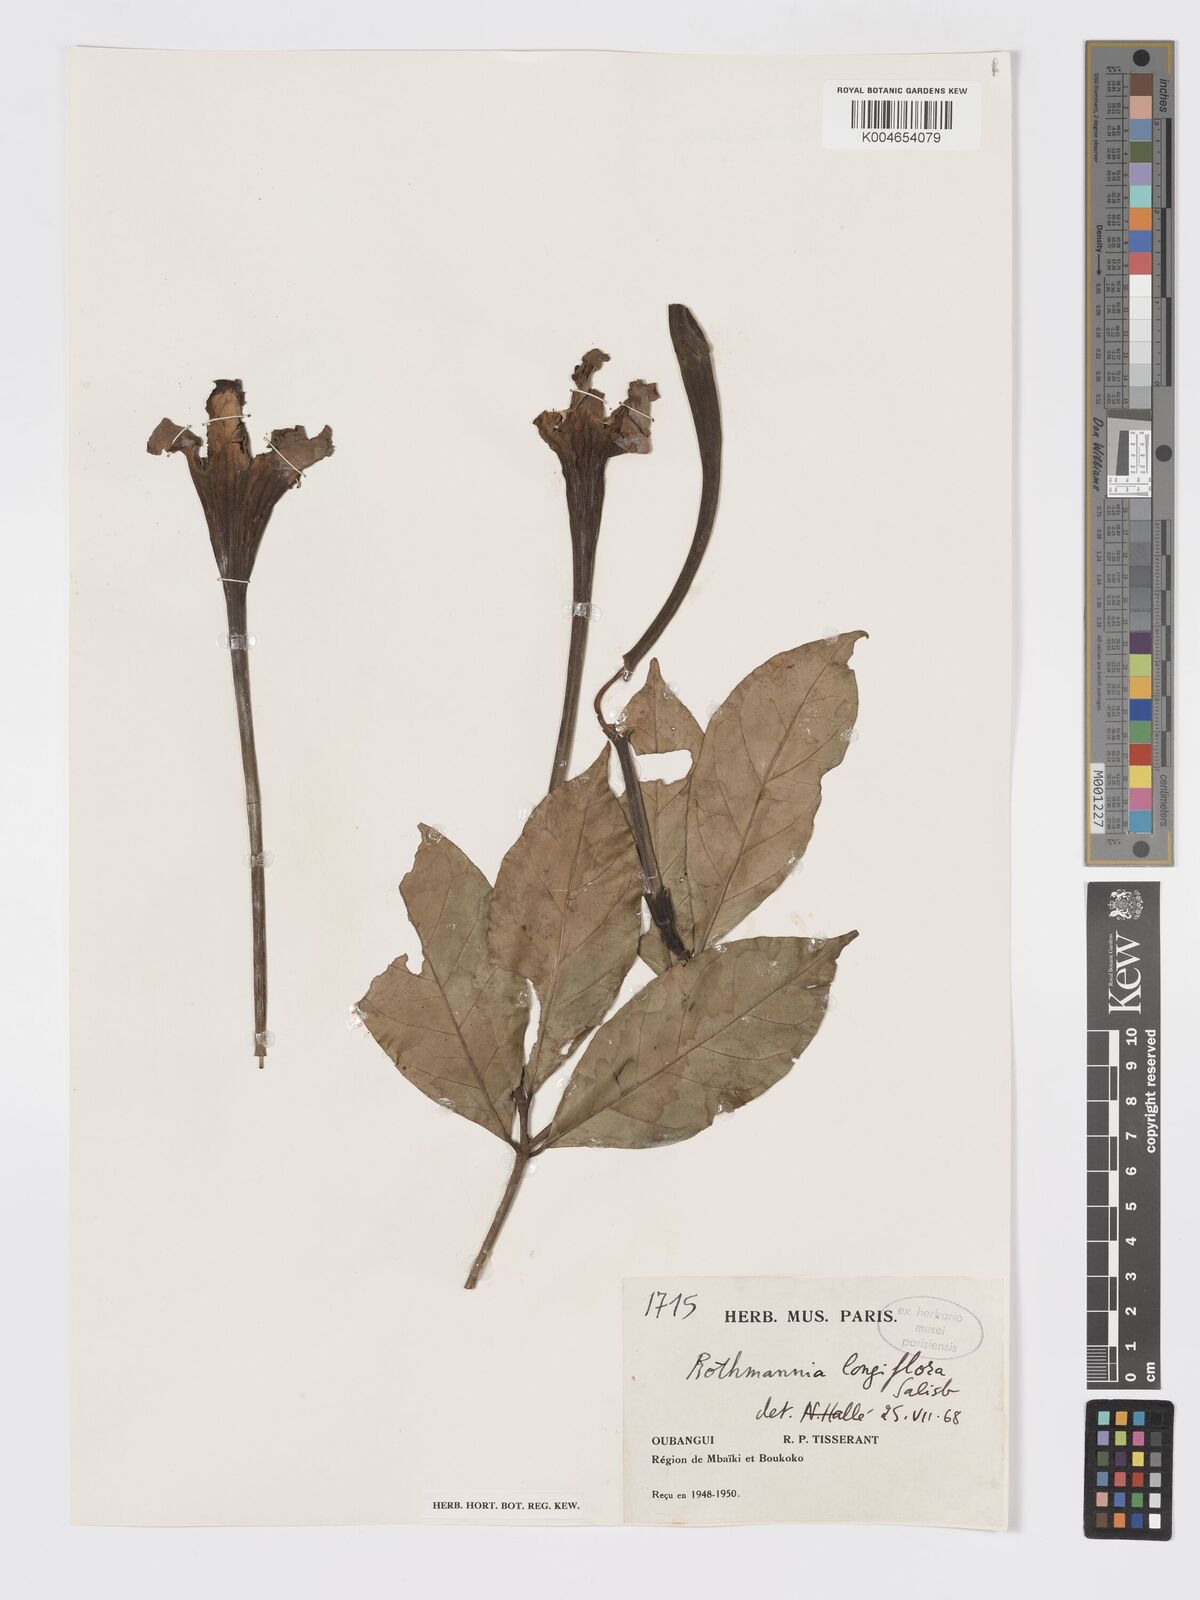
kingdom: Plantae
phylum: Tracheophyta
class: Magnoliopsida
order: Gentianales
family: Rubiaceae
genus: Rothmannia
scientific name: Rothmannia longiflora
